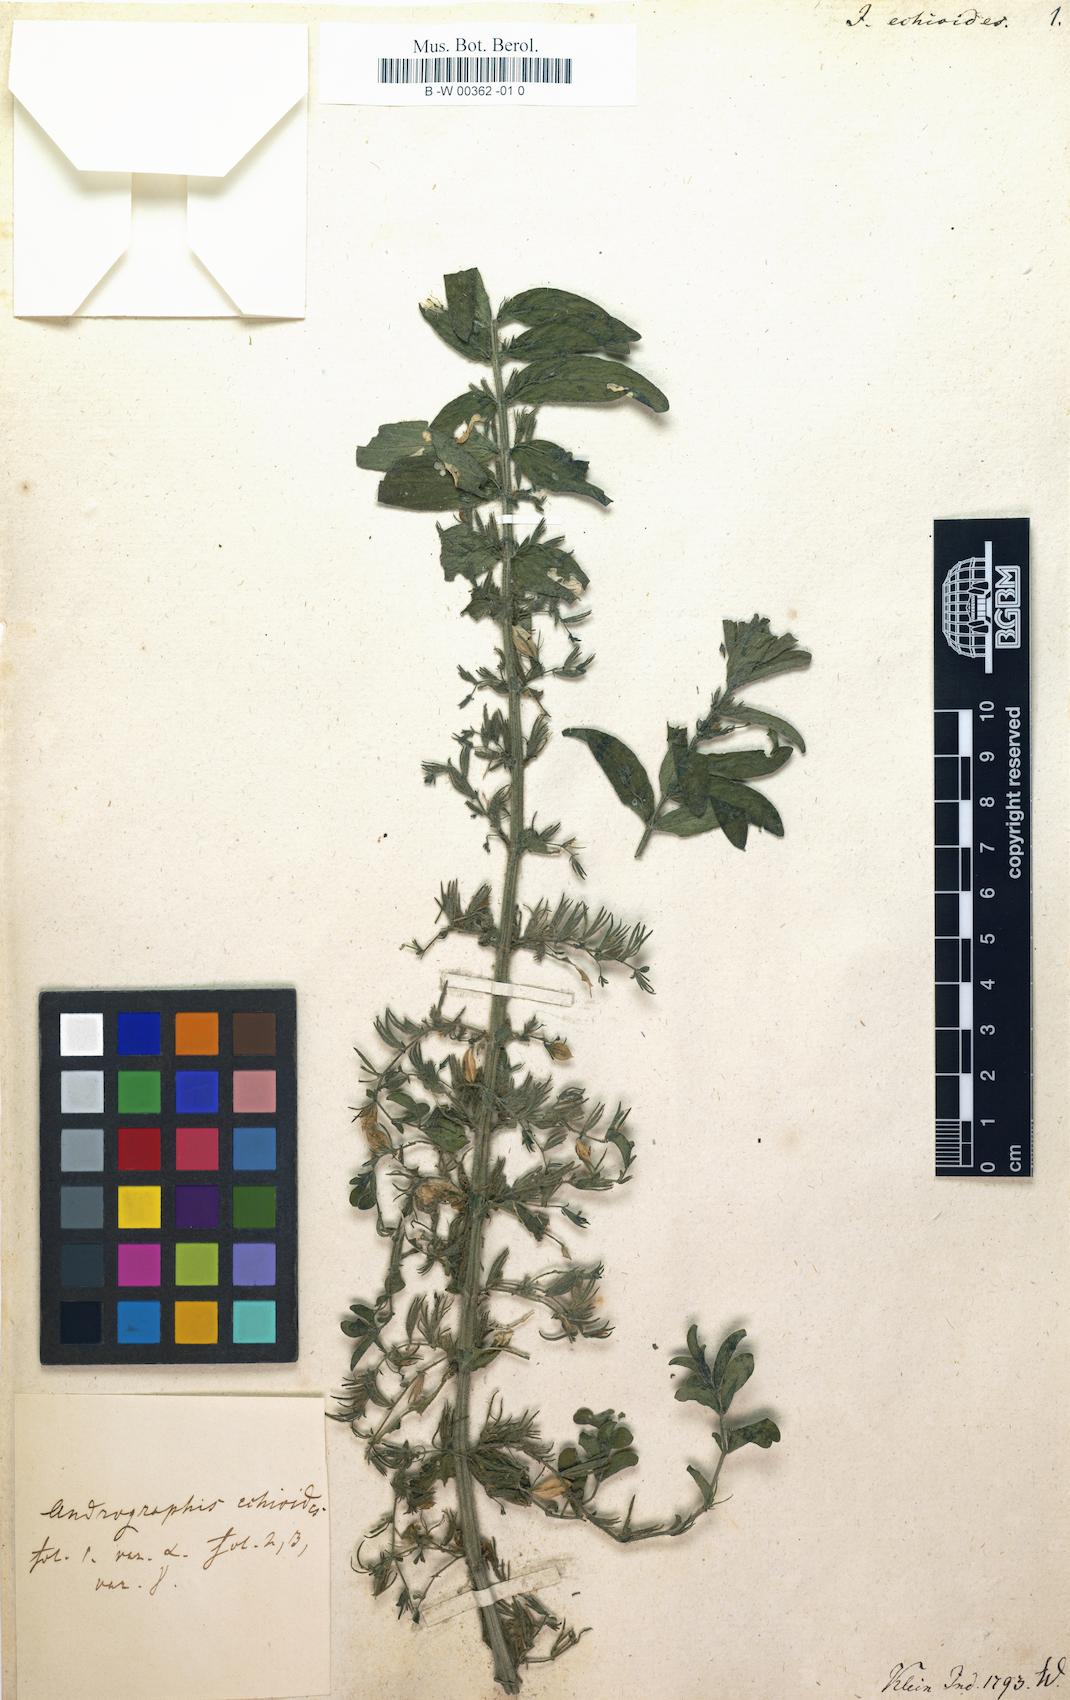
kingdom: Plantae
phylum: Tracheophyta
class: Magnoliopsida
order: Lamiales
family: Acanthaceae
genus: Andrographis
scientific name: Andrographis echioides
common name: False waterwillow
